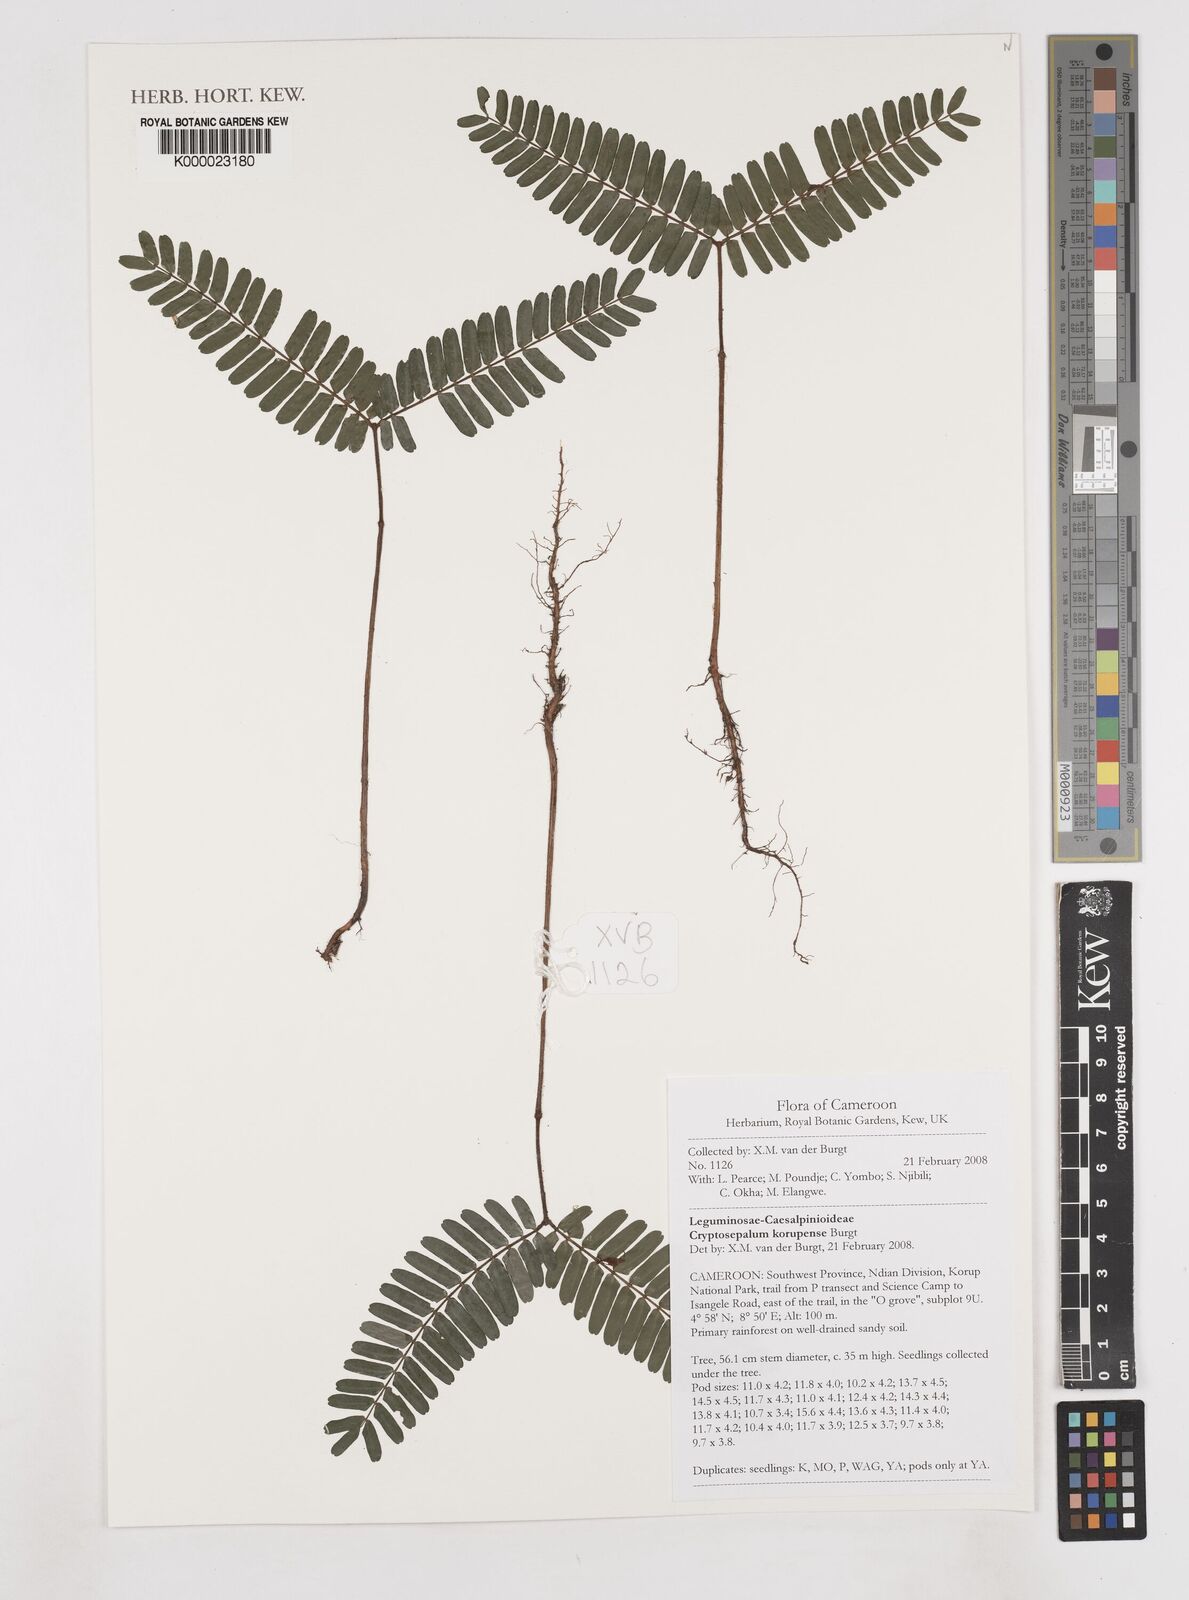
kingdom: Plantae
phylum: Tracheophyta
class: Magnoliopsida
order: Fabales
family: Fabaceae
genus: Cryptosepalum
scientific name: Cryptosepalum korupense
